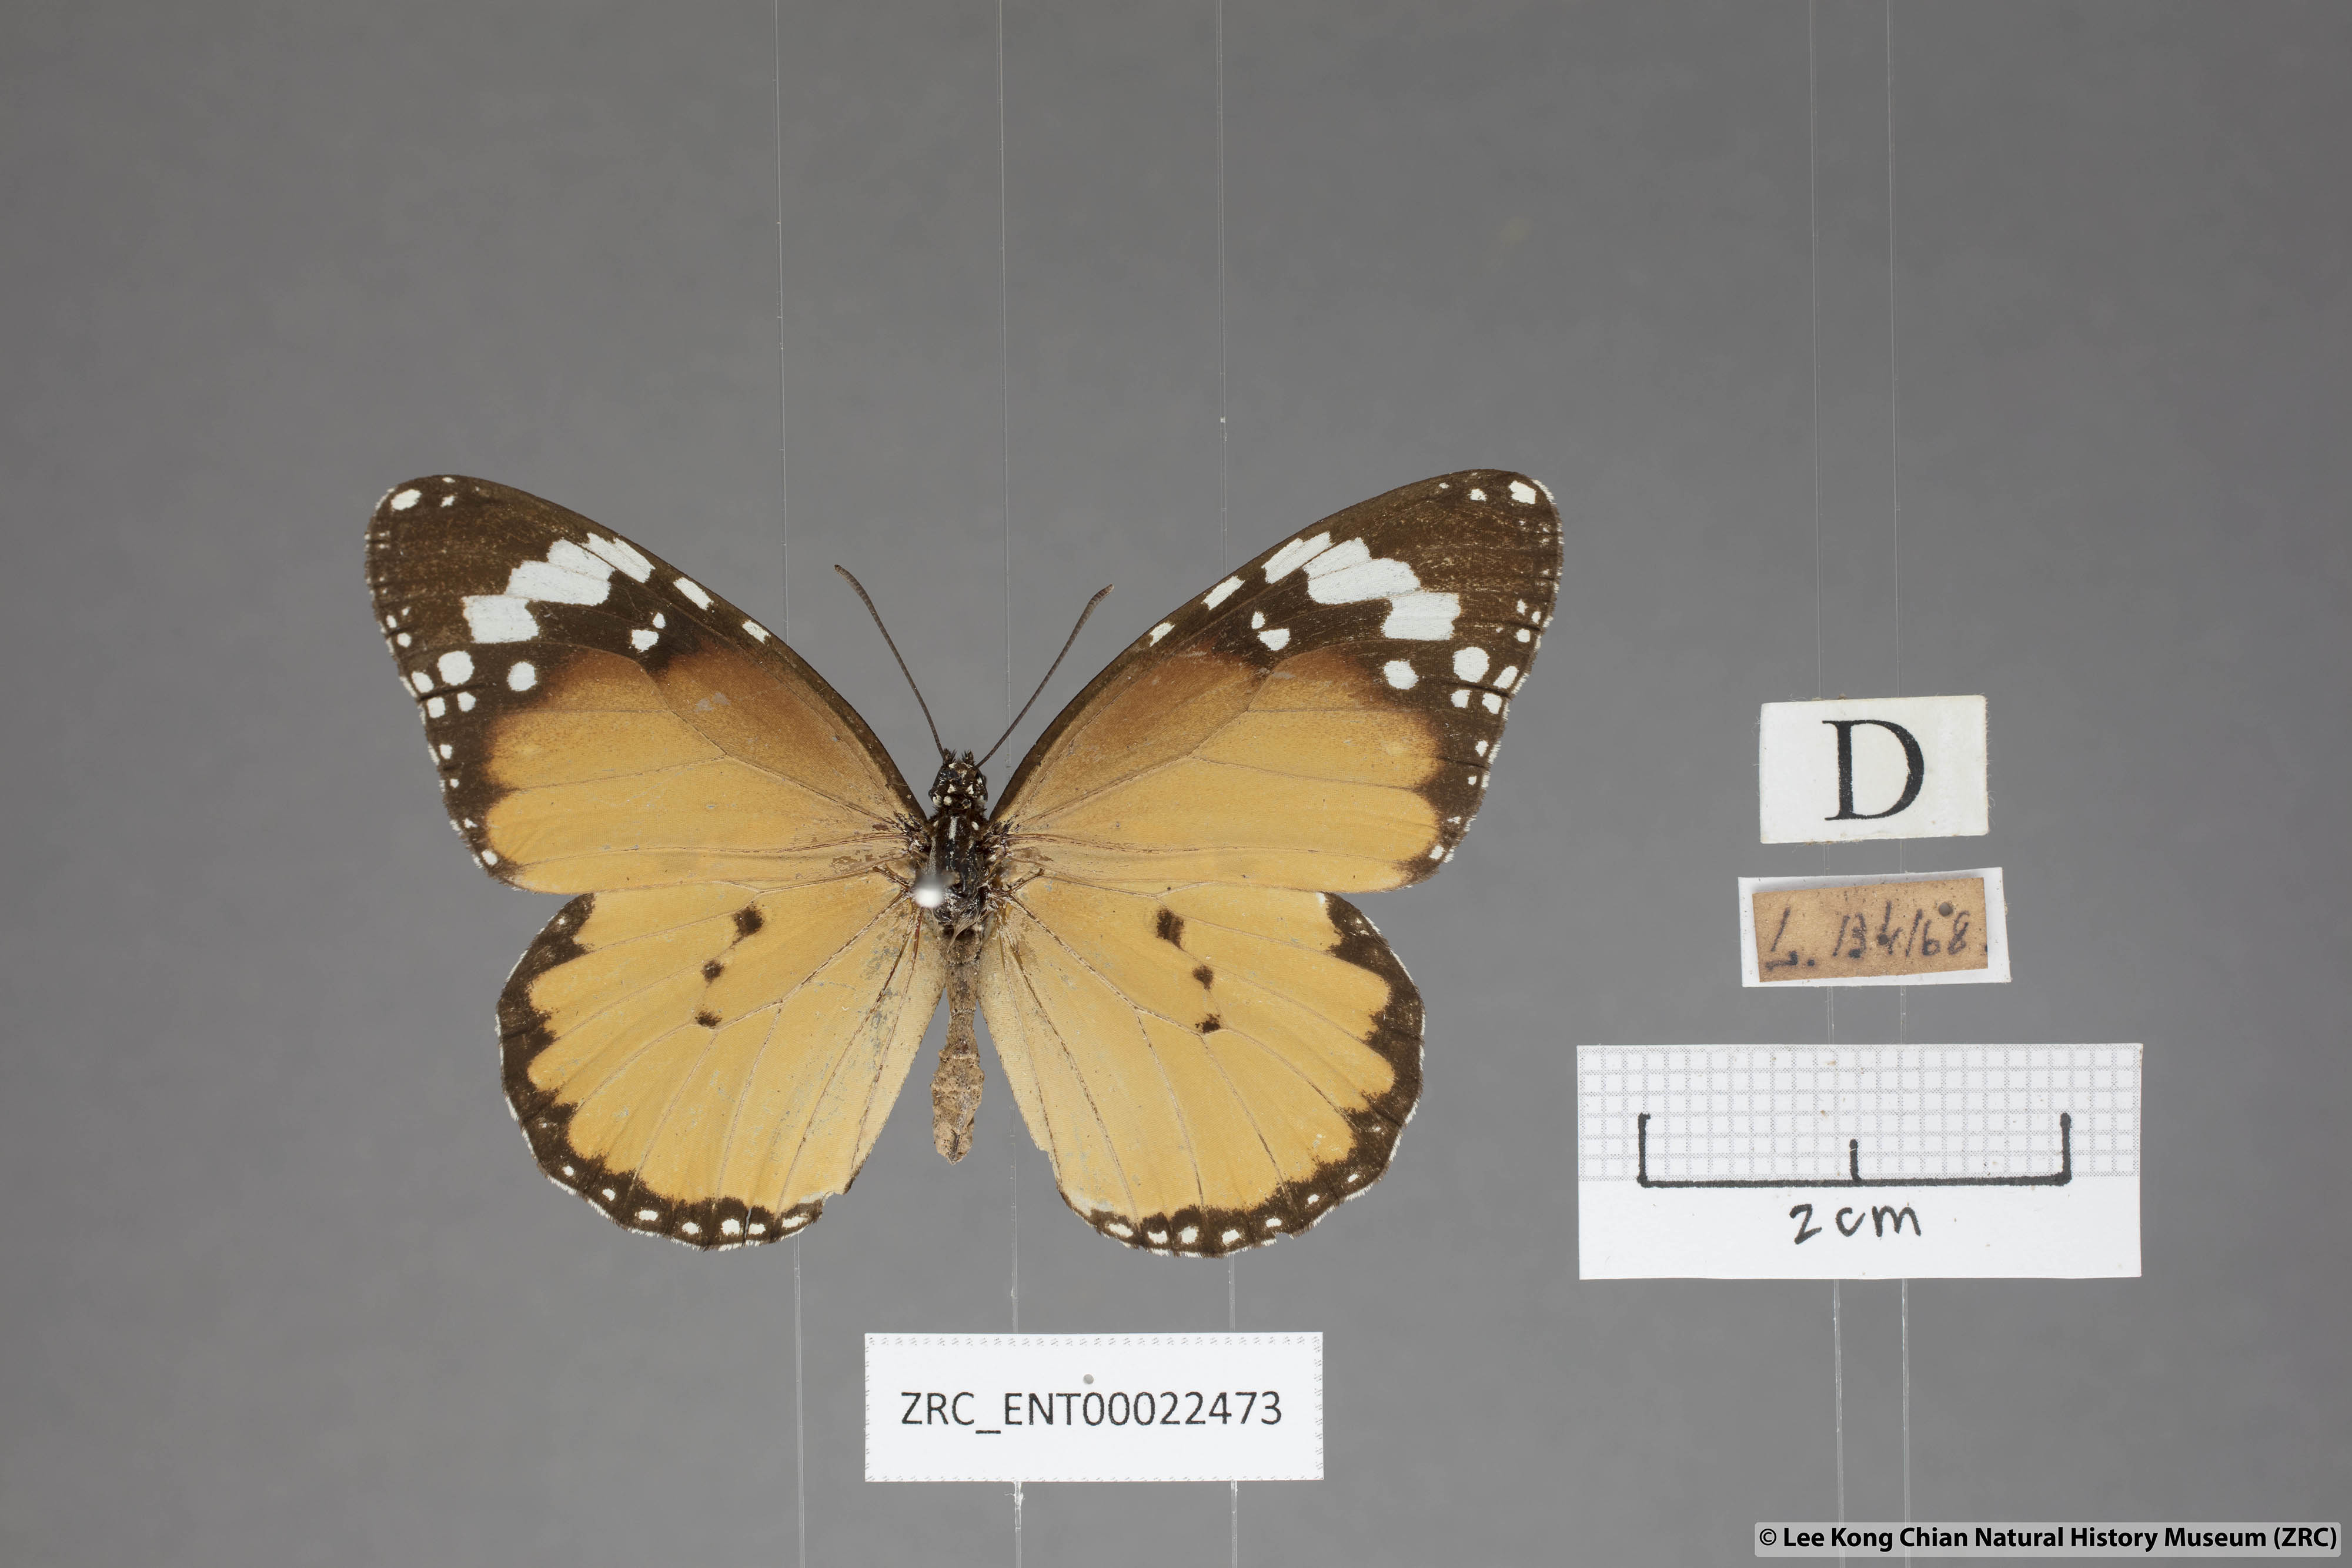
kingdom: Animalia
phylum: Arthropoda
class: Insecta
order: Lepidoptera
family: Nymphalidae
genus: Danaus
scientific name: Danaus chrysippus
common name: Plain tiger
